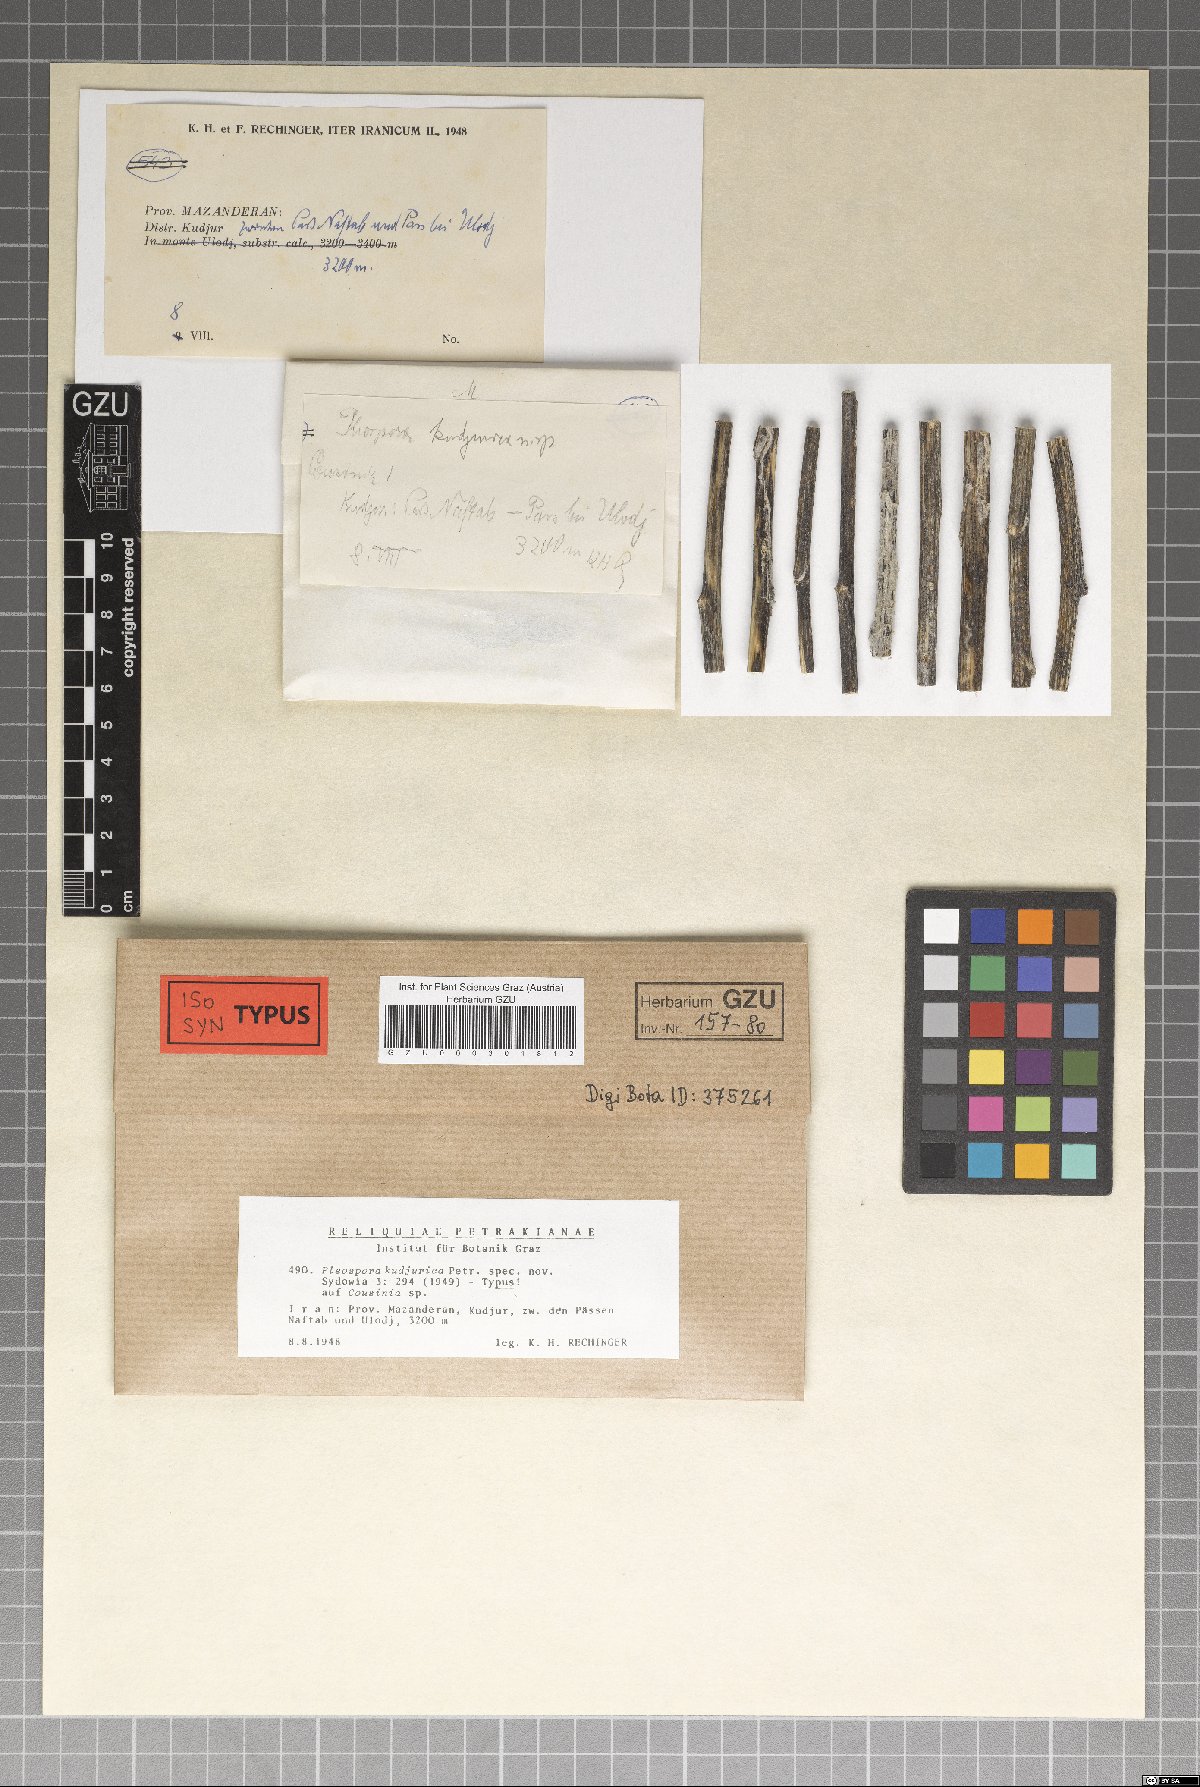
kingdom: Fungi
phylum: Ascomycota
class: Dothideomycetes
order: Pleosporales
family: Pleosporaceae
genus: Pleospora
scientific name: Pleospora kudjurica
